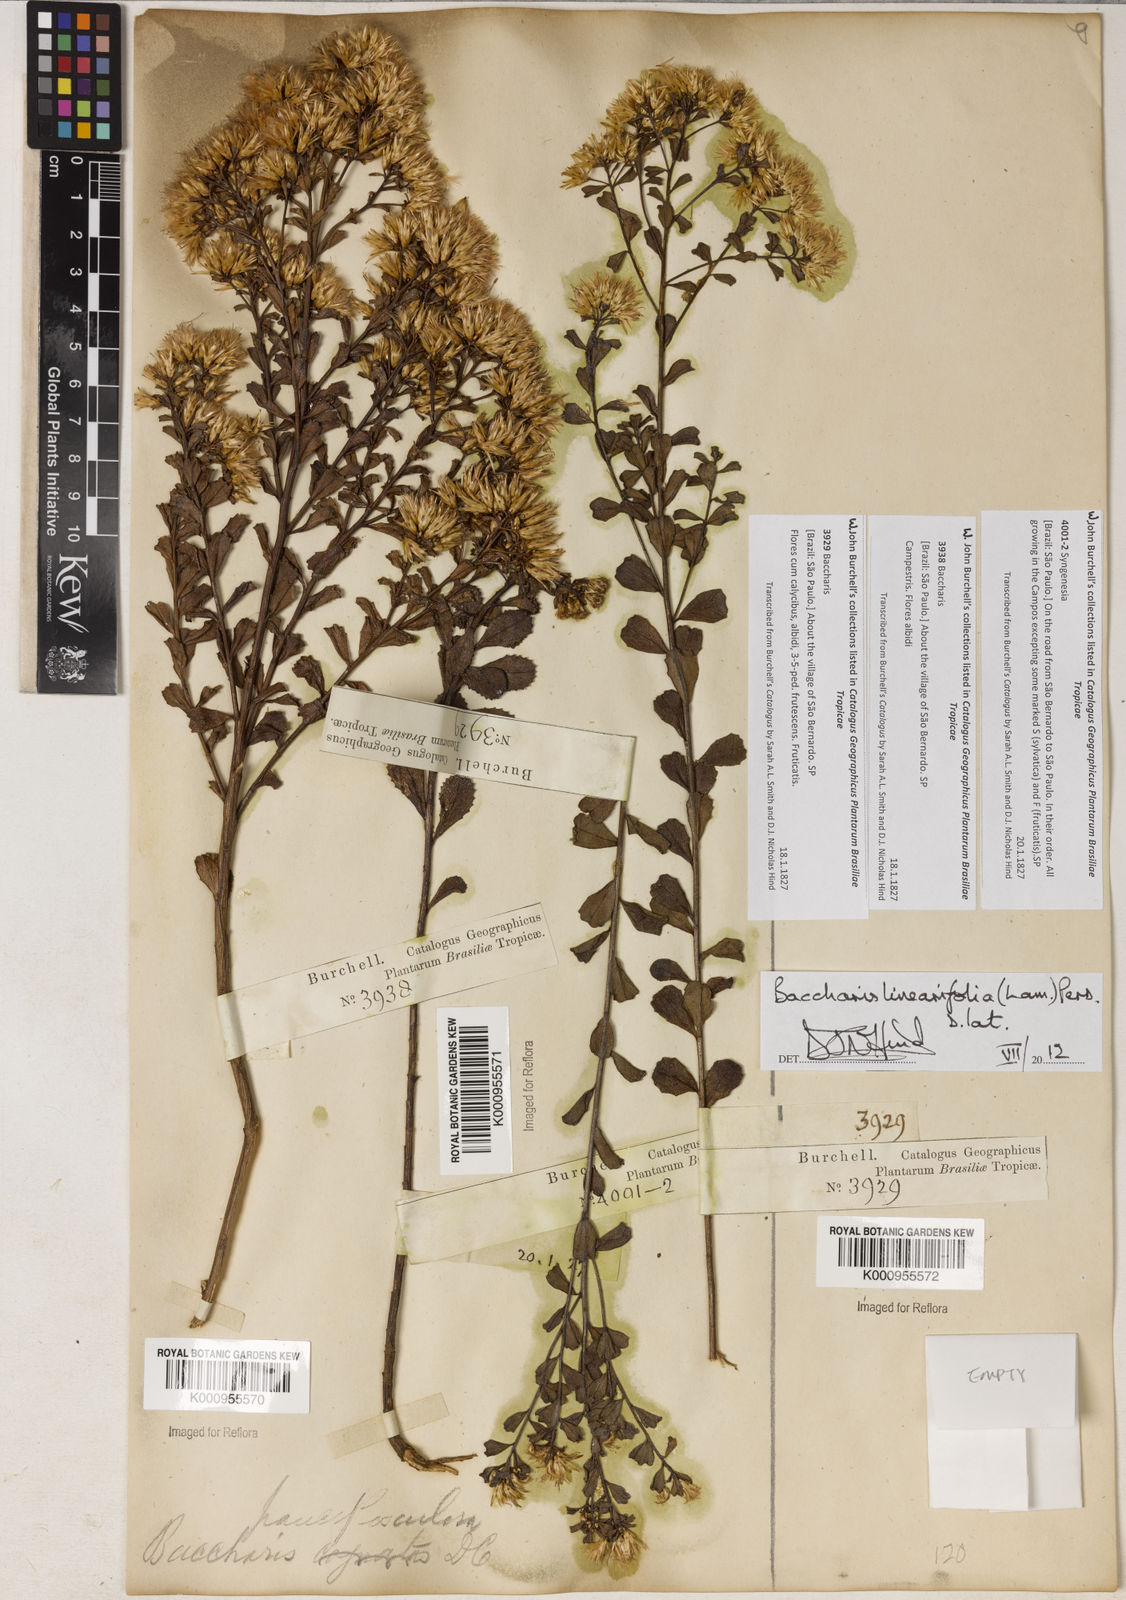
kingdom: Plantae
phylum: Tracheophyta
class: Magnoliopsida
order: Asterales
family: Asteraceae
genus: Baccharis
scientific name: Baccharis linearifolia
